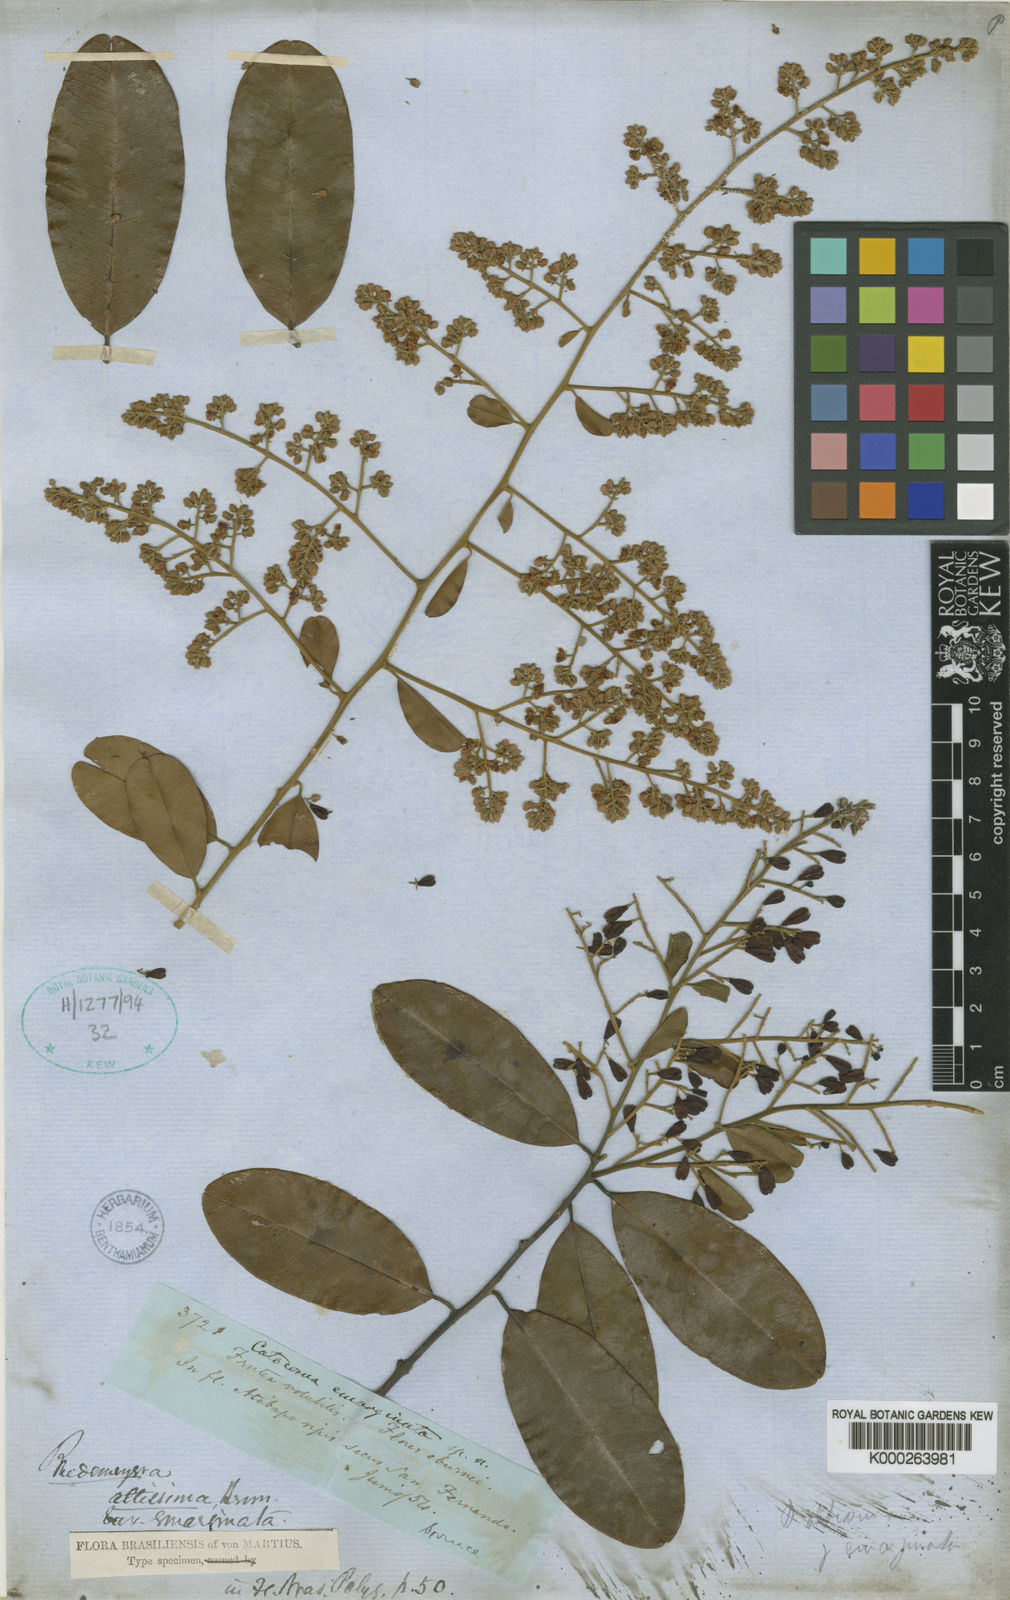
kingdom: Plantae
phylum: Tracheophyta
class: Magnoliopsida
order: Fabales
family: Polygalaceae
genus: Bredemeyera
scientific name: Bredemeyera divaricata
